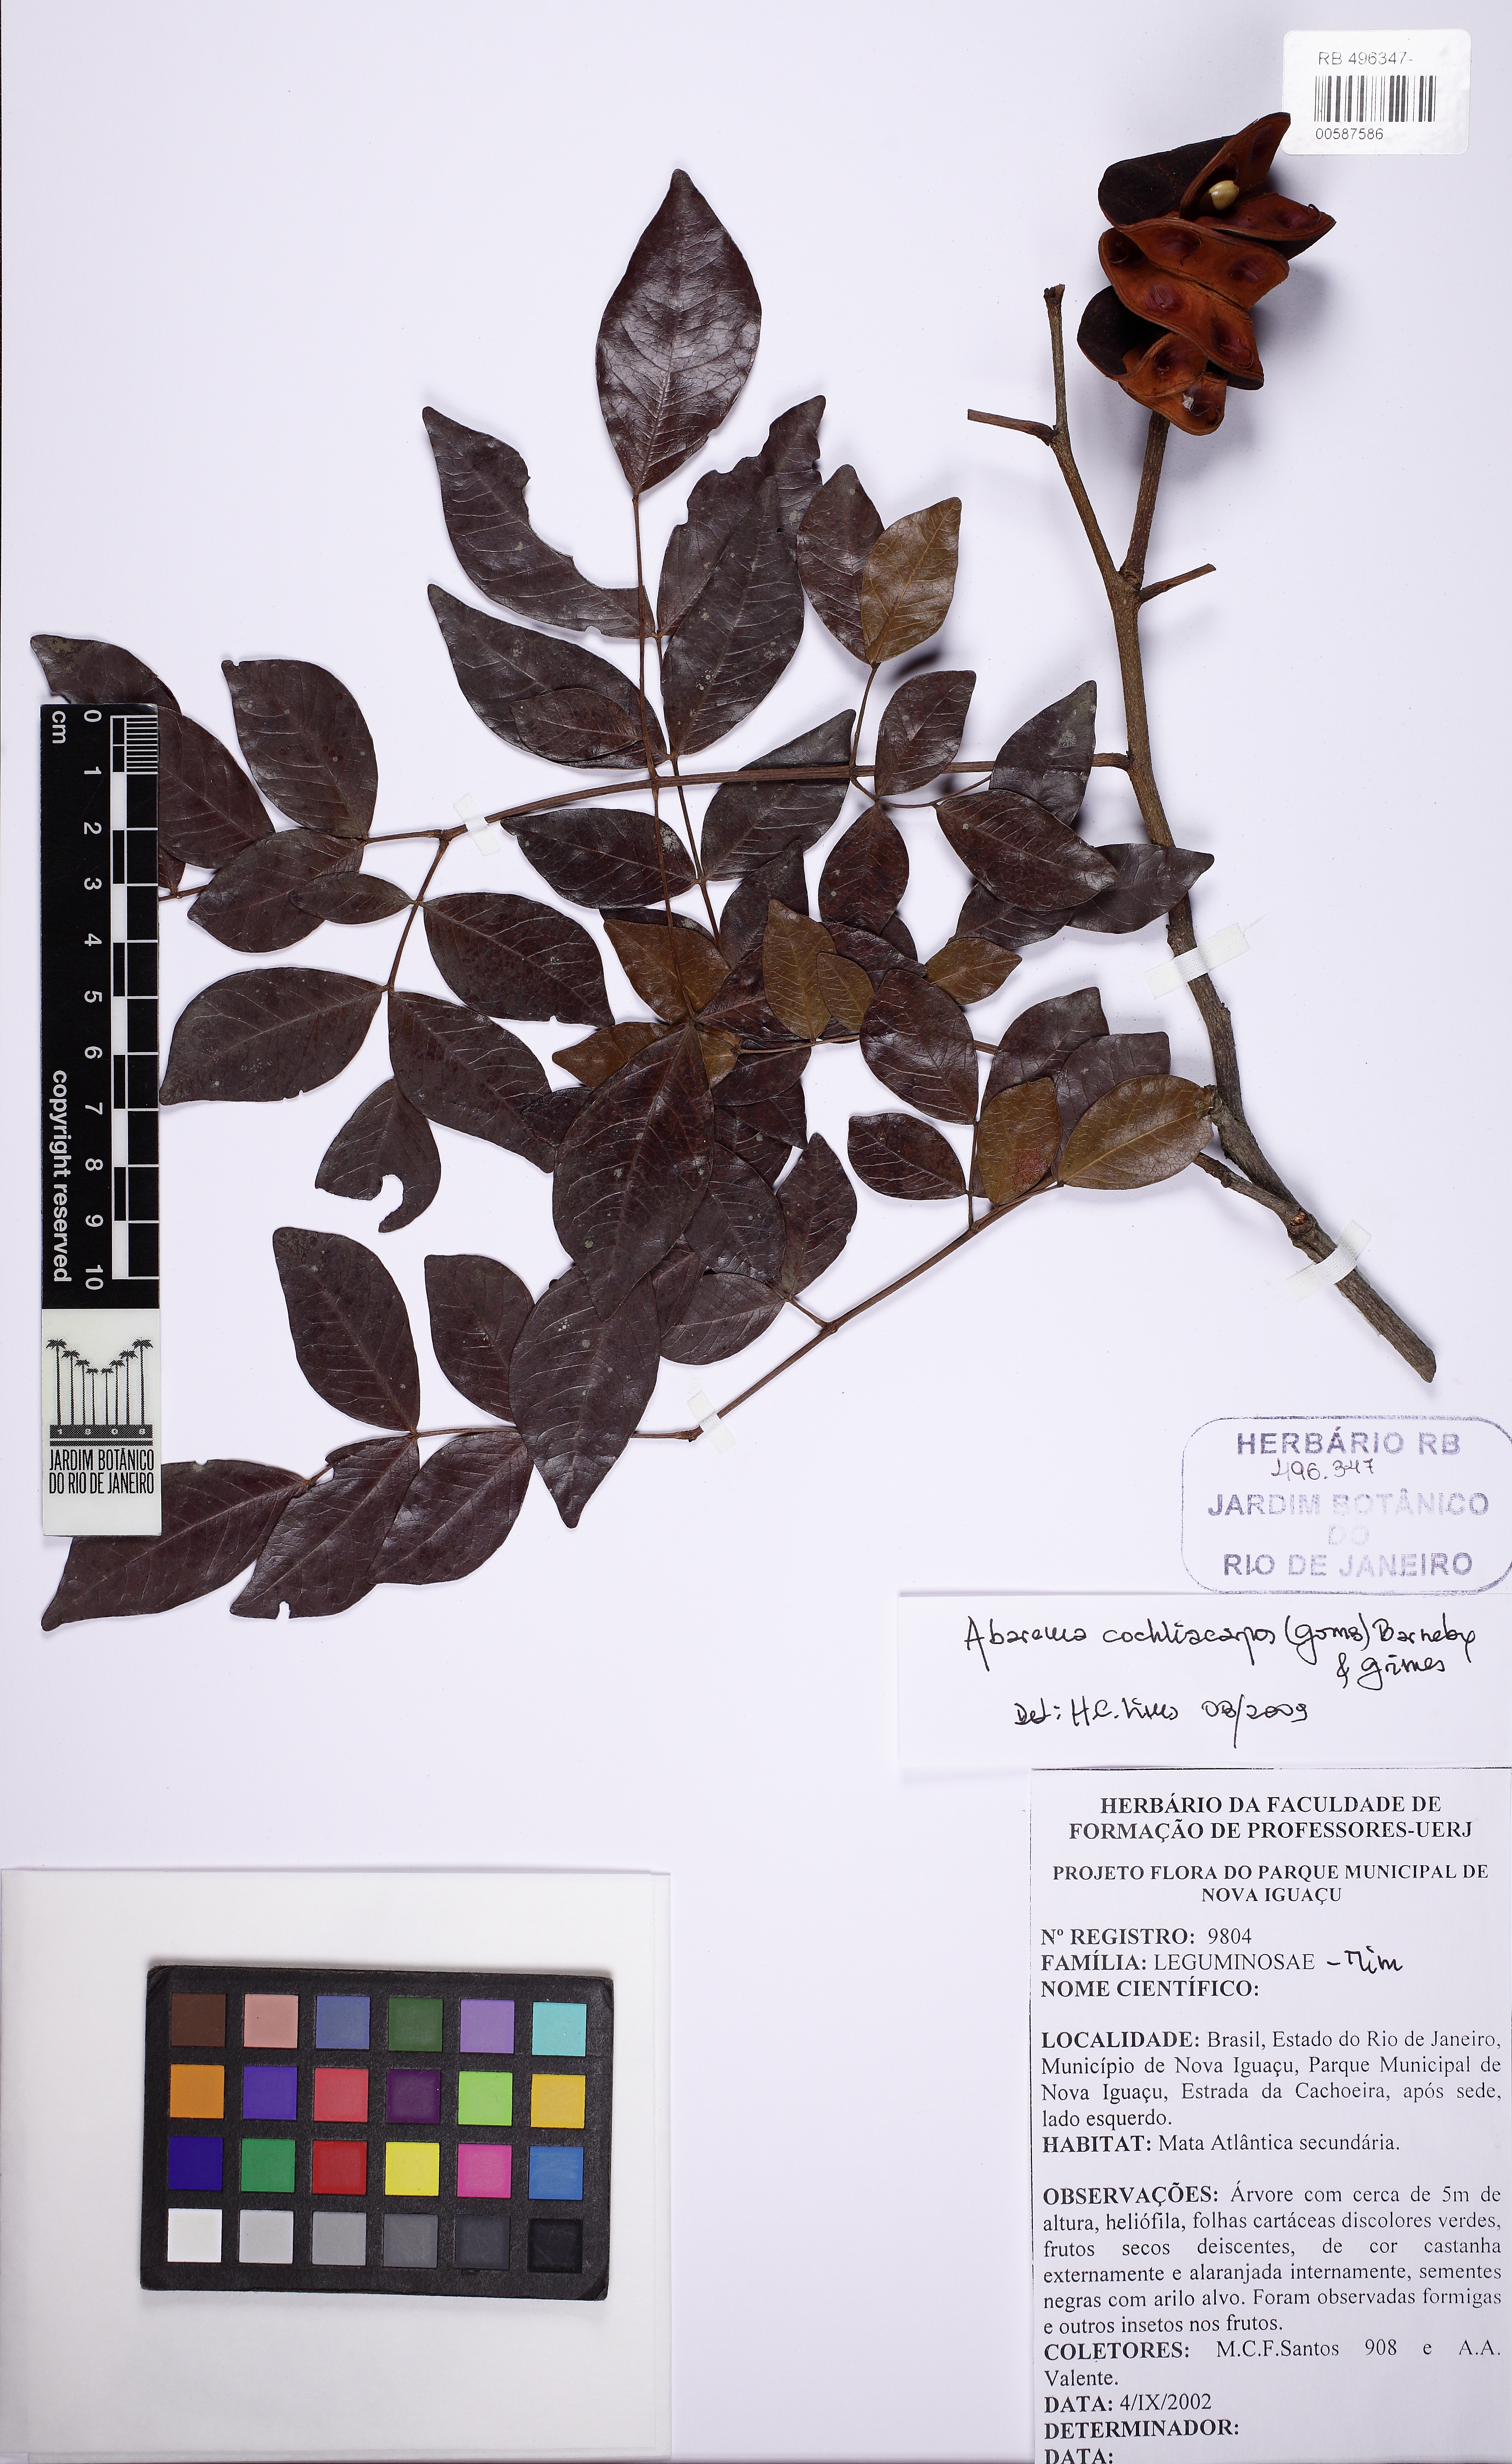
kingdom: Plantae
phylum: Tracheophyta
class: Magnoliopsida
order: Fabales
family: Fabaceae
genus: Abarema
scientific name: Abarema cochliacarpos
